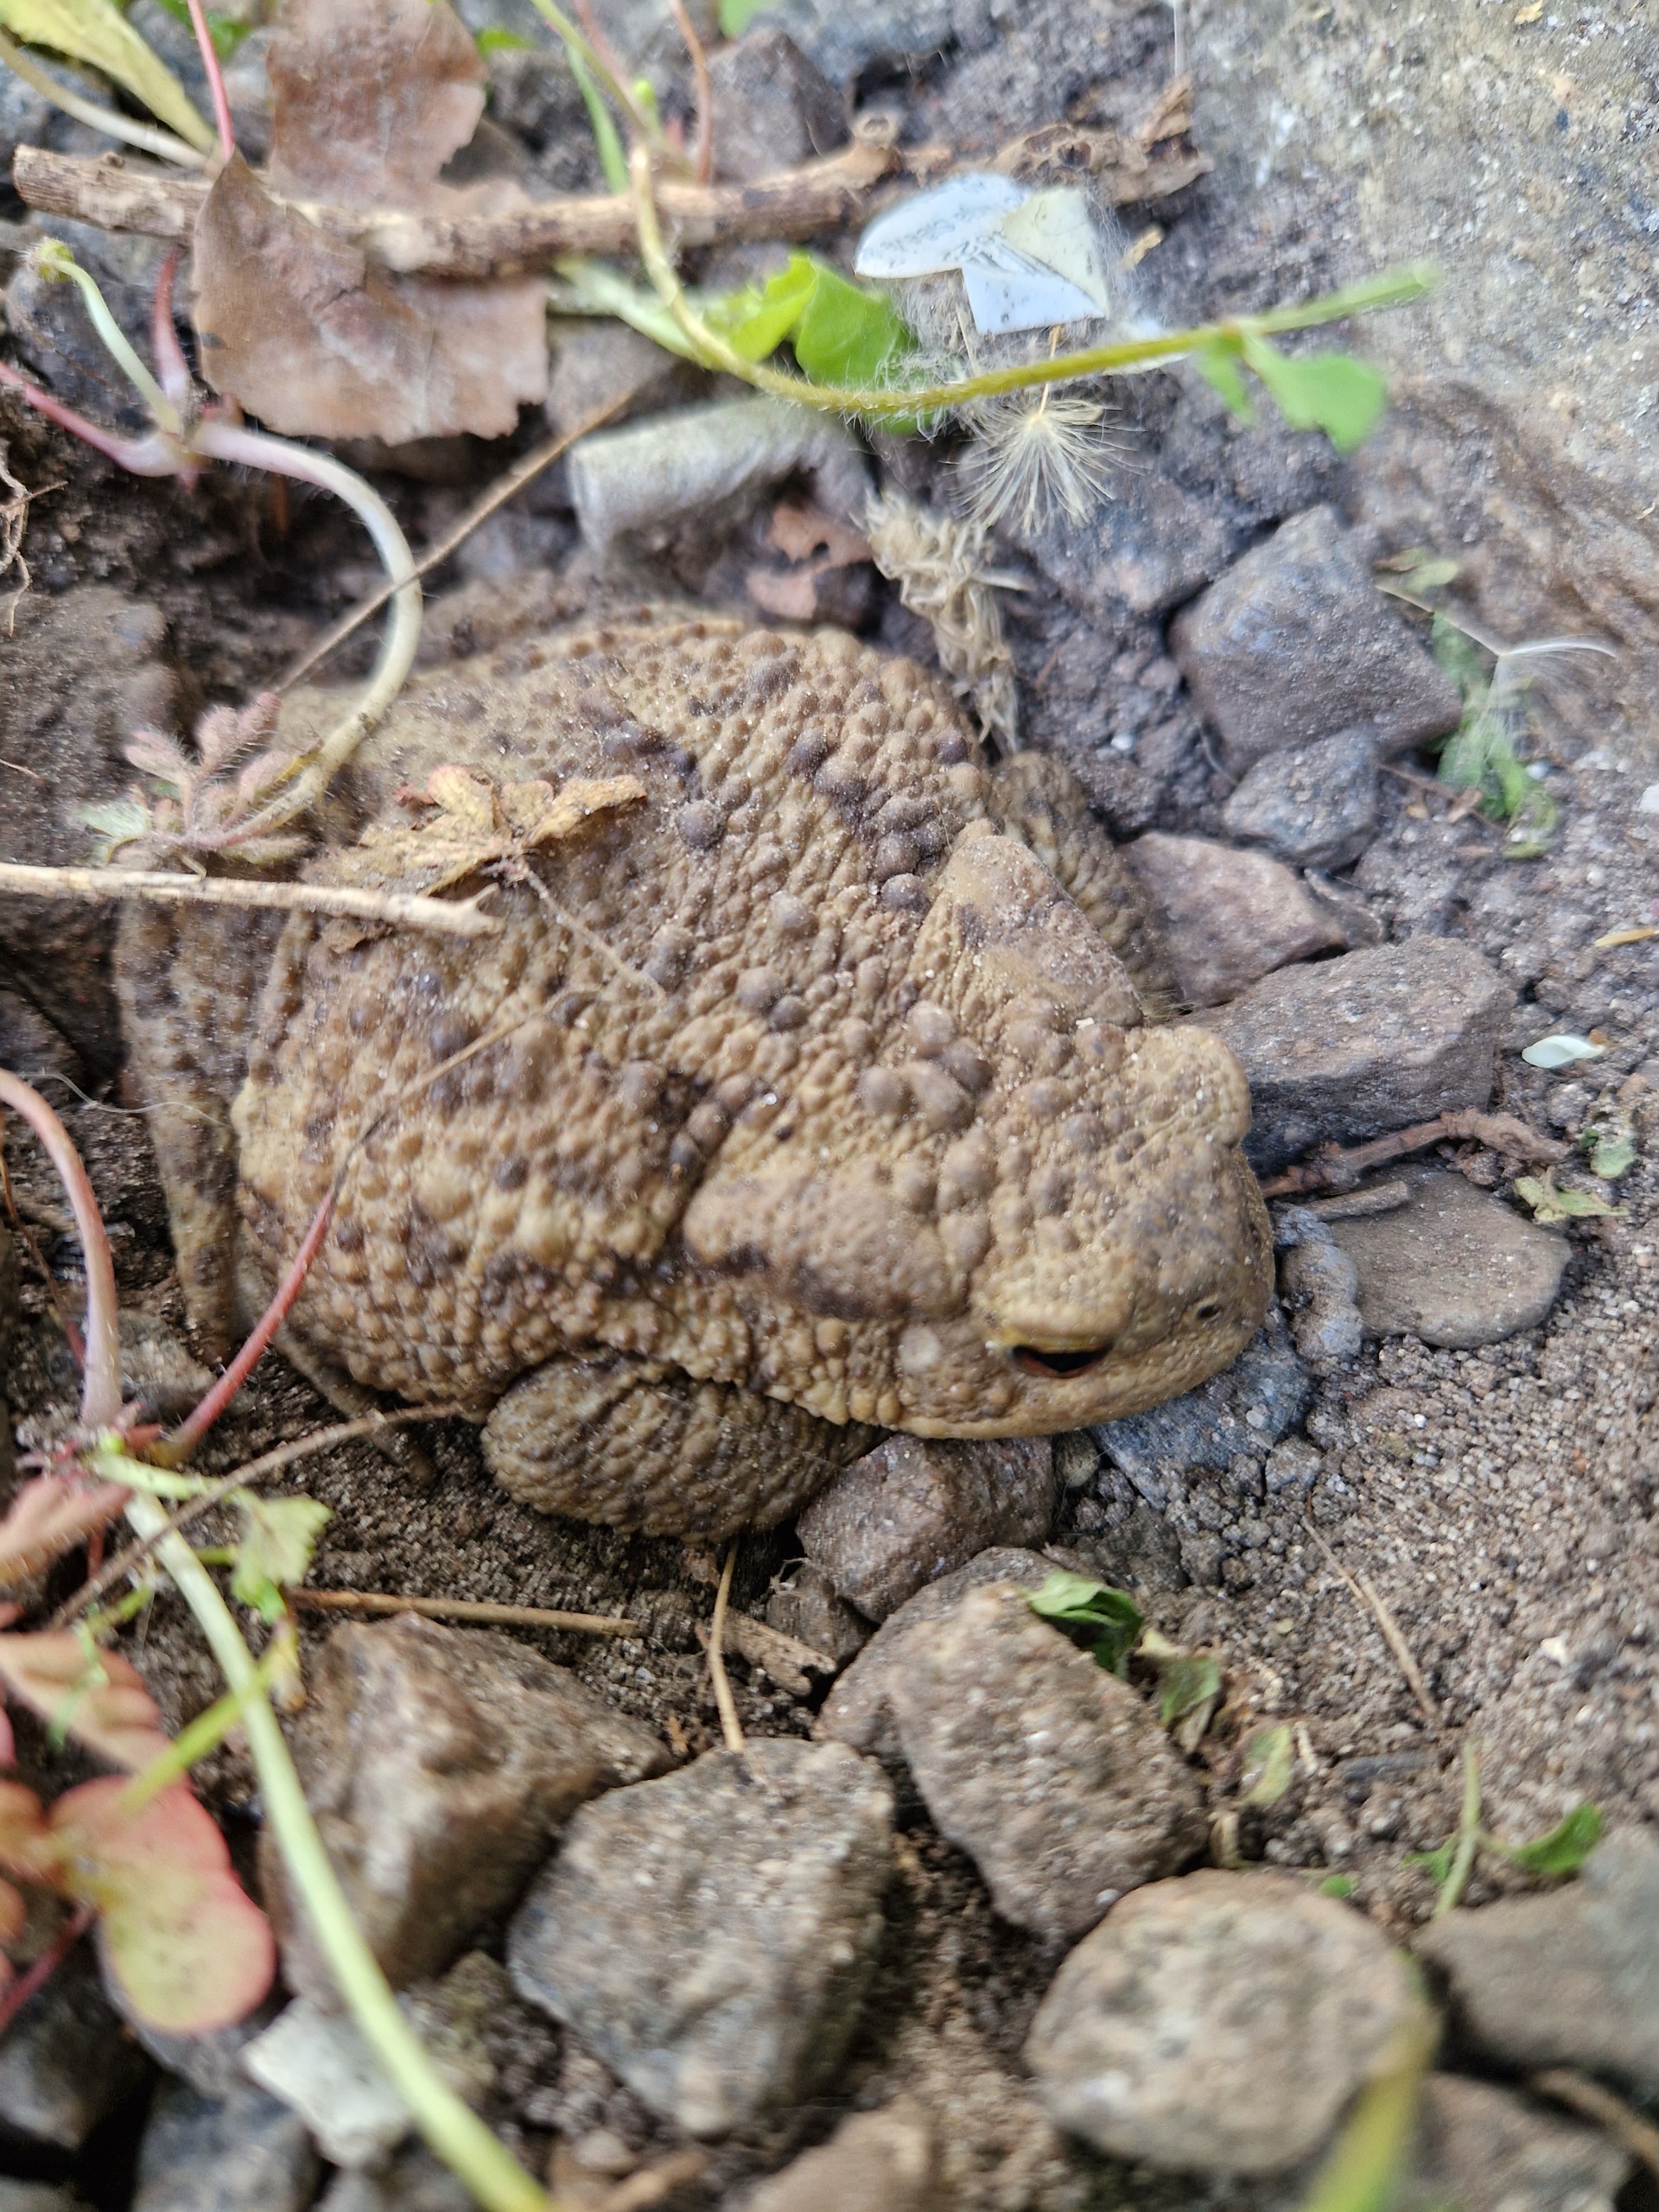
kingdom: Animalia
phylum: Chordata
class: Amphibia
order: Anura
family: Bufonidae
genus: Bufo
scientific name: Bufo bufo
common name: Skrubtudse
